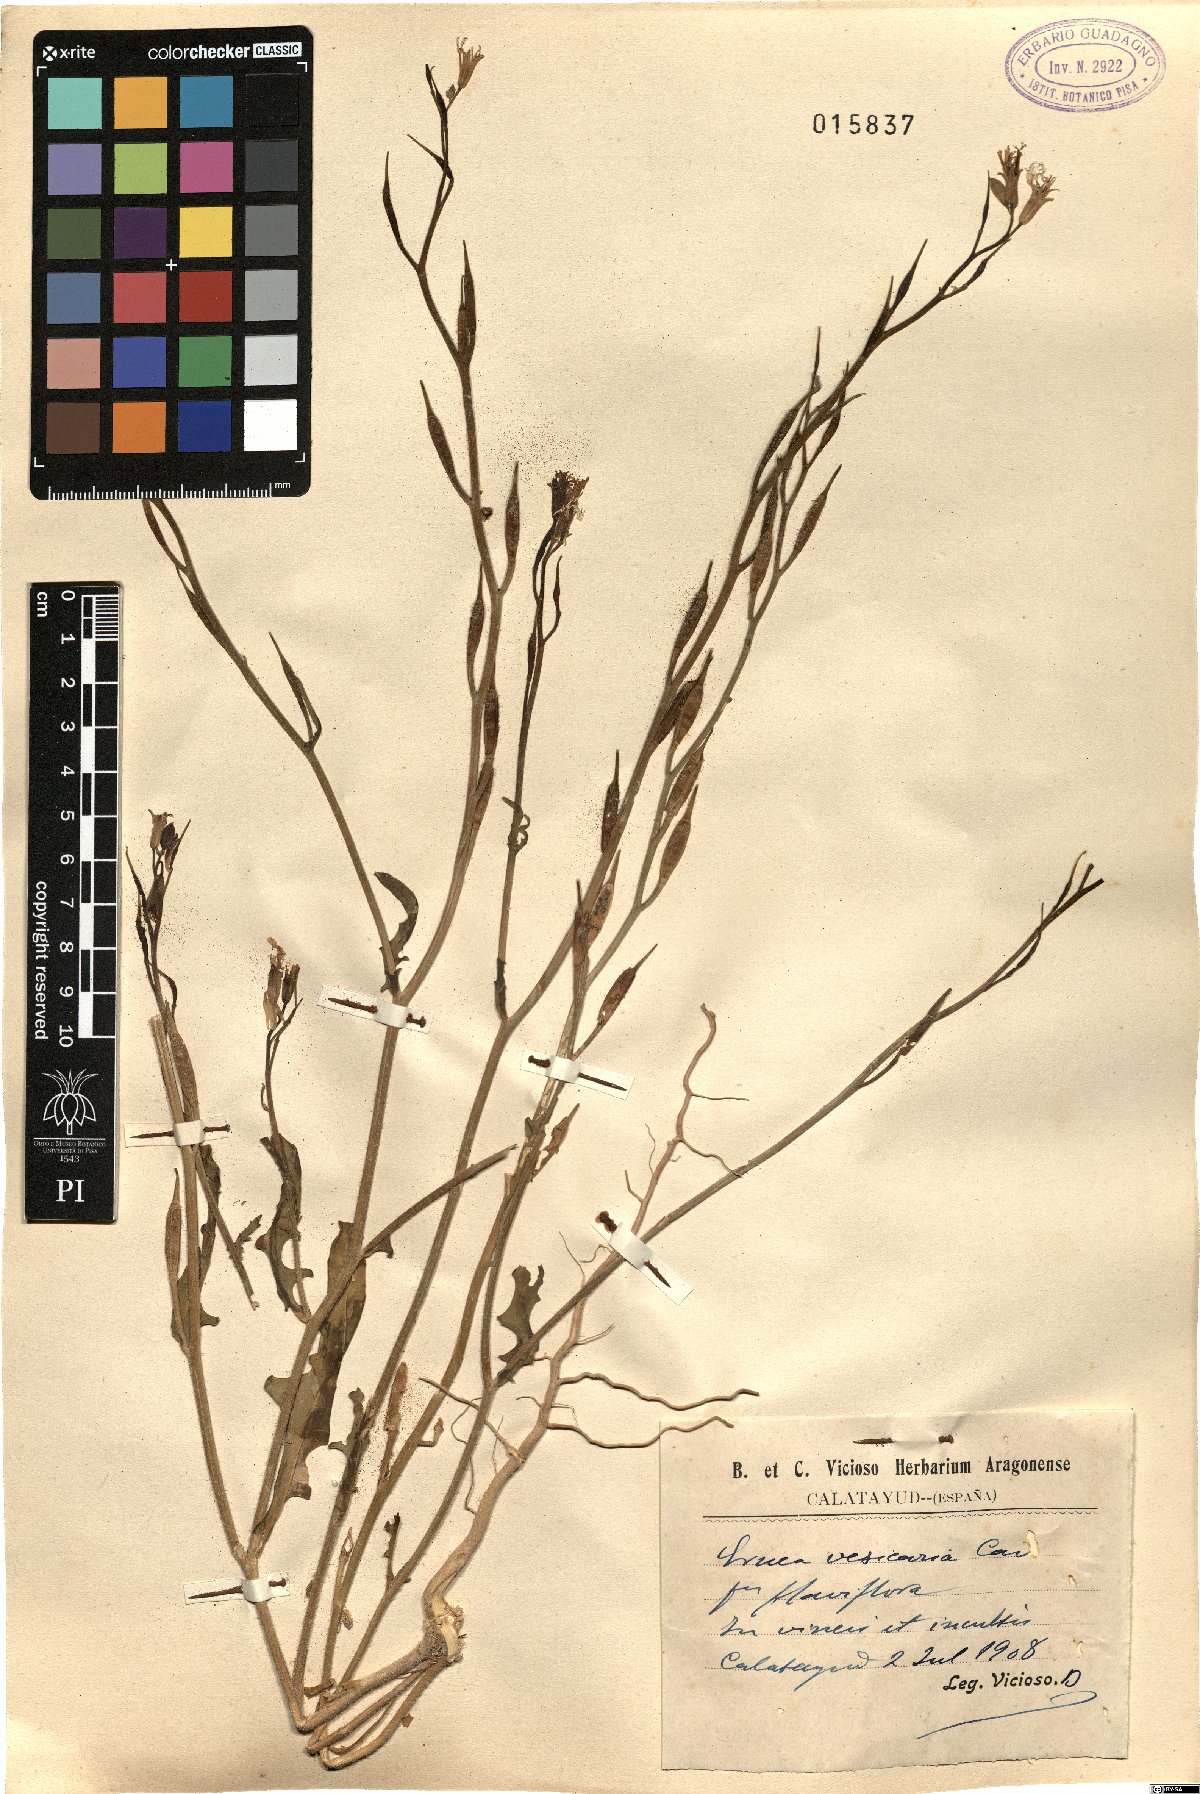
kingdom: Plantae
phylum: Tracheophyta
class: Magnoliopsida
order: Brassicales
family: Brassicaceae
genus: Eruca
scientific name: Eruca vesicaria
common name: Garden rocket
